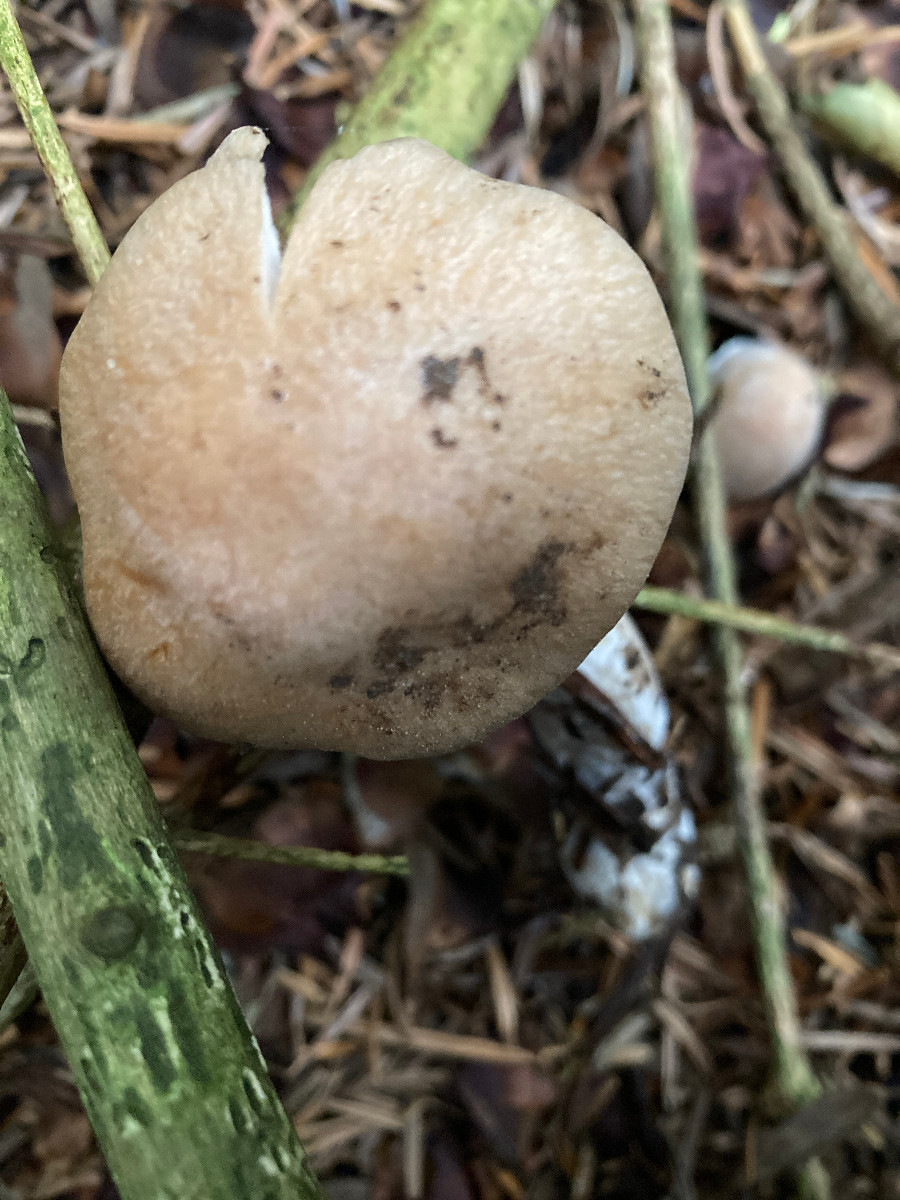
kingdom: Fungi
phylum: Basidiomycota
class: Agaricomycetes
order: Agaricales
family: Cortinariaceae
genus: Cortinarius
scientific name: Cortinarius hydrotelamonioides
